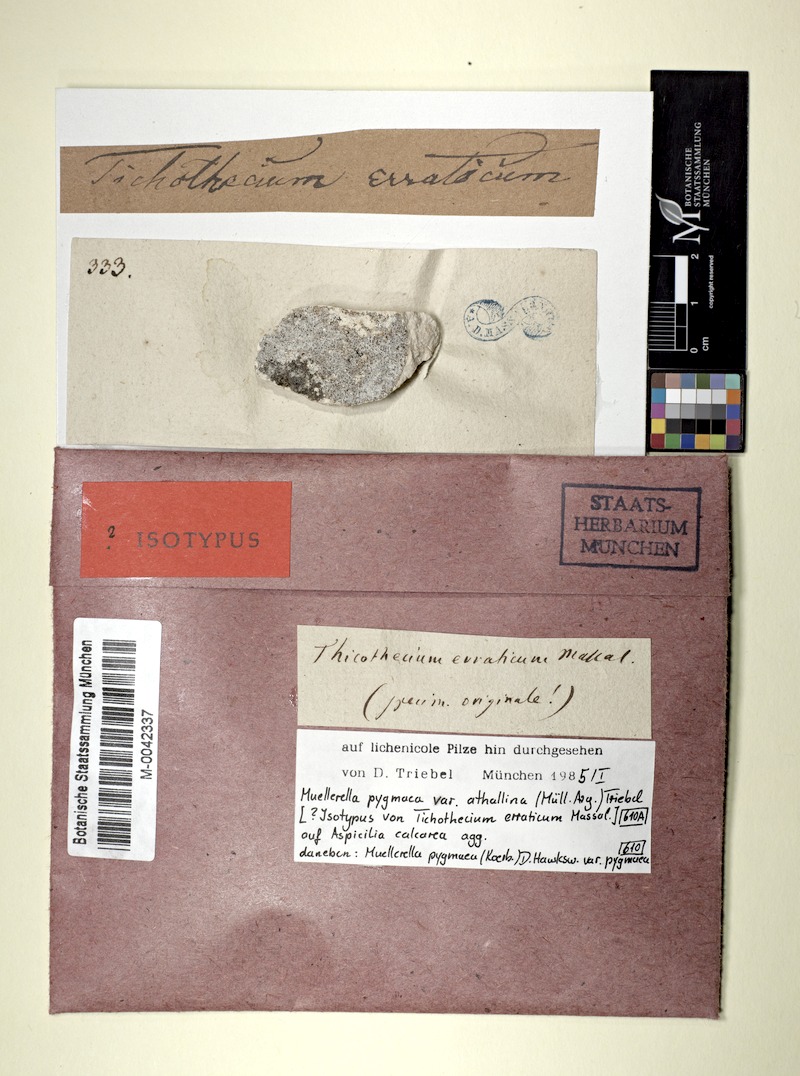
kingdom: Fungi
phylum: Ascomycota
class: Eurotiomycetes
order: Verrucariales
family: Verrucariaceae
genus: Muellerella
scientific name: Muellerella erratica
